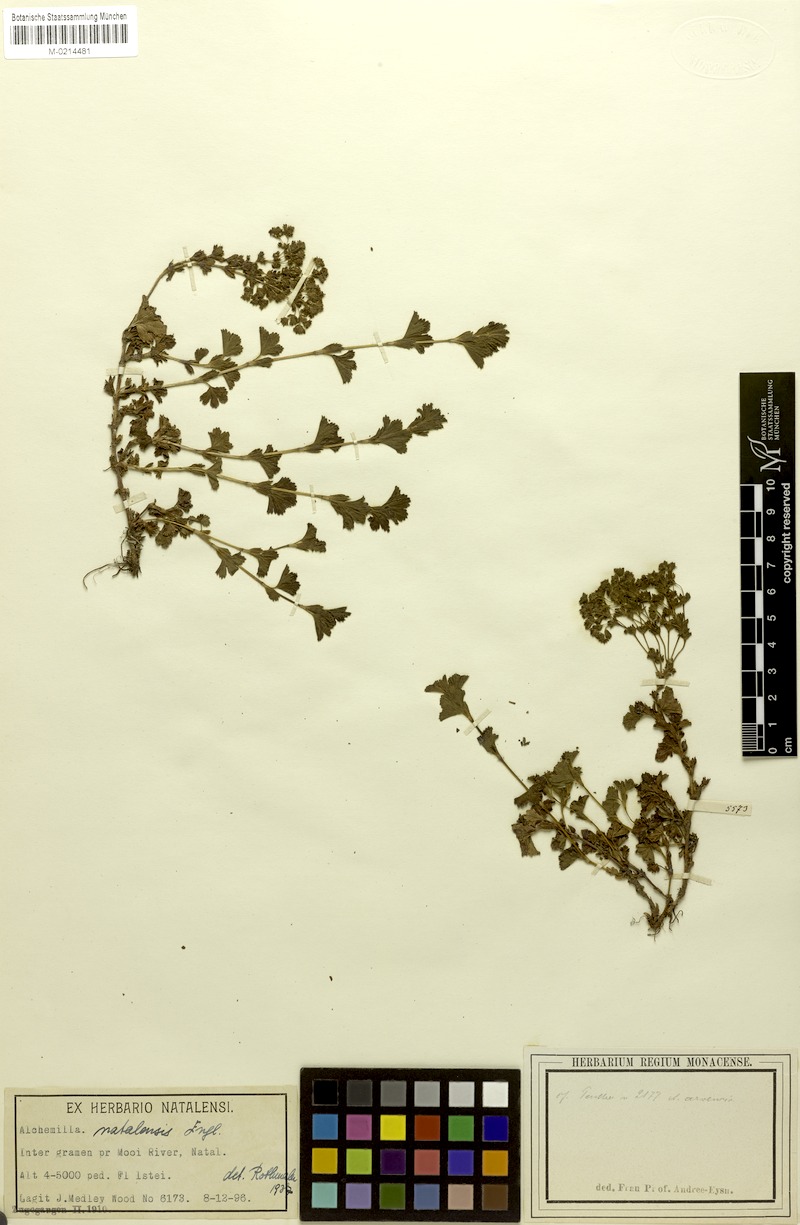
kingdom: Plantae
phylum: Tracheophyta
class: Magnoliopsida
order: Rosales
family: Rosaceae
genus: Alchemilla
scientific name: Alchemilla natalensis
